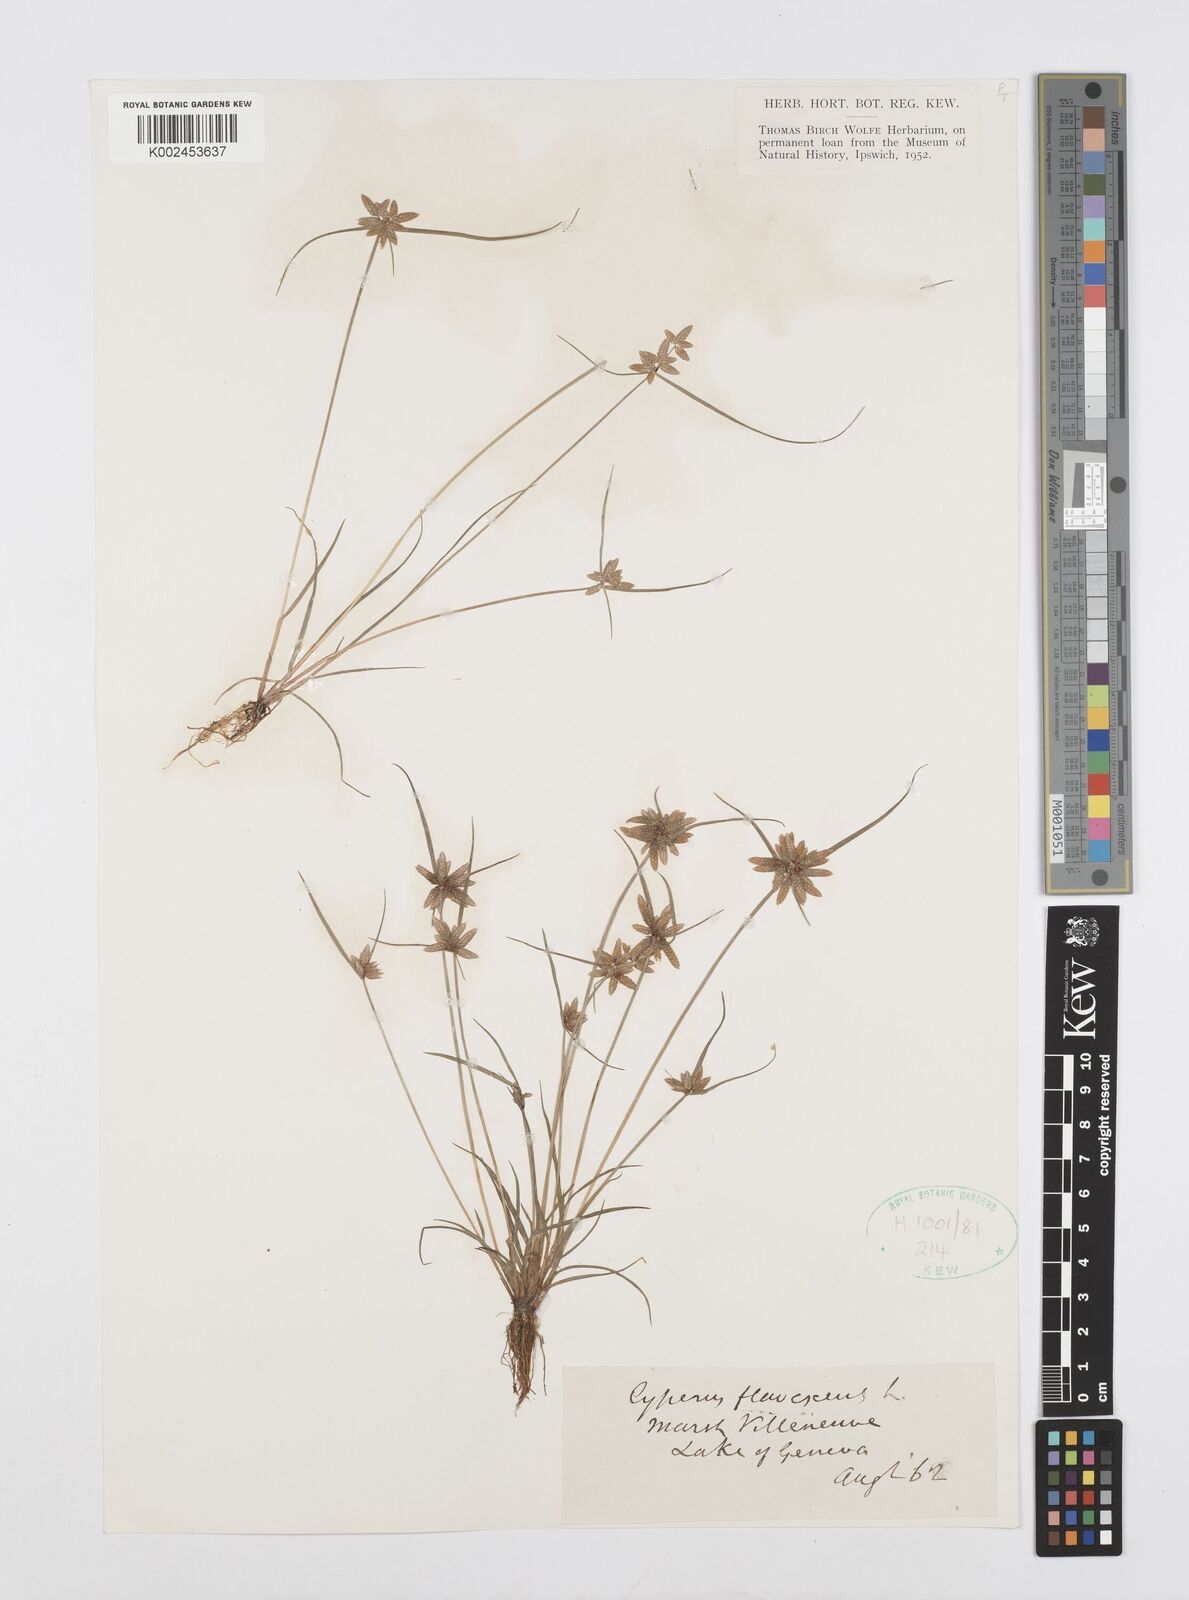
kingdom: Plantae
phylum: Tracheophyta
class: Liliopsida
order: Poales
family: Cyperaceae
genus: Cyperus
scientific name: Cyperus flavescens
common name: Yellow galingale
